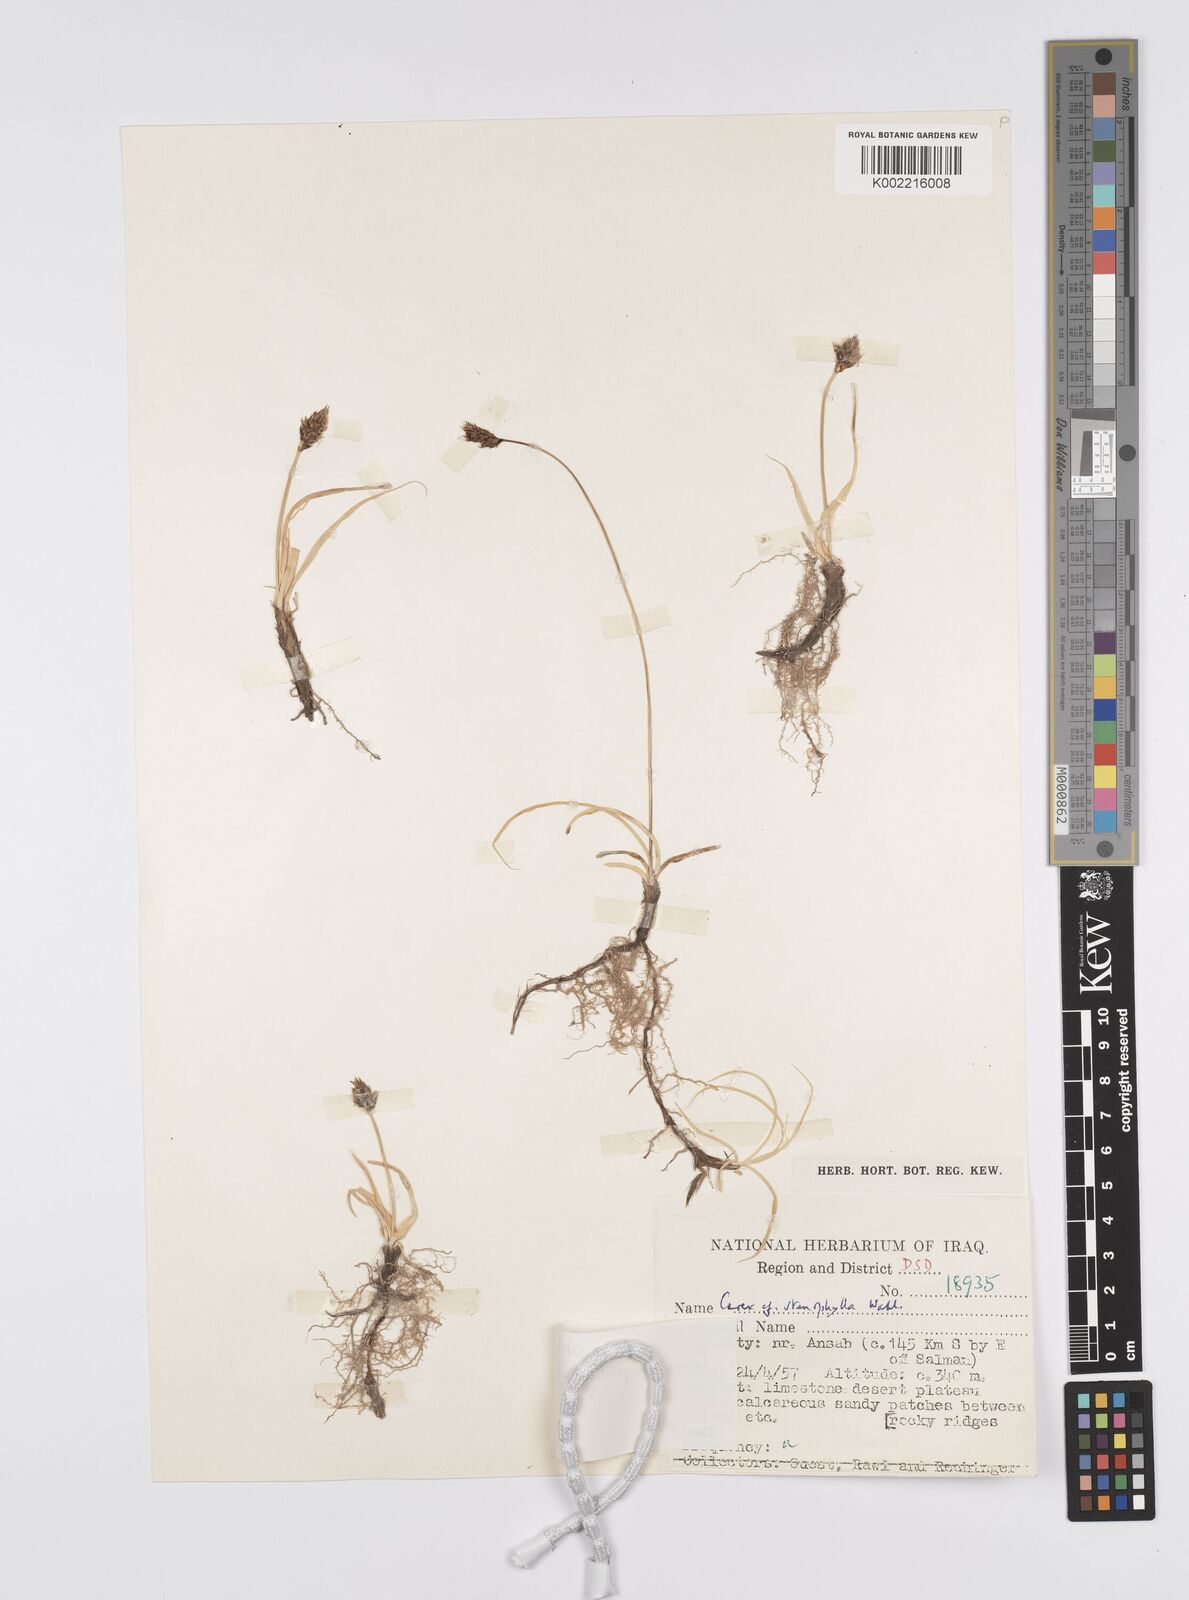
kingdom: Plantae
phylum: Tracheophyta
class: Liliopsida
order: Poales
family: Cyperaceae
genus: Carex
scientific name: Carex pachystylis
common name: Thick-stem sedge
